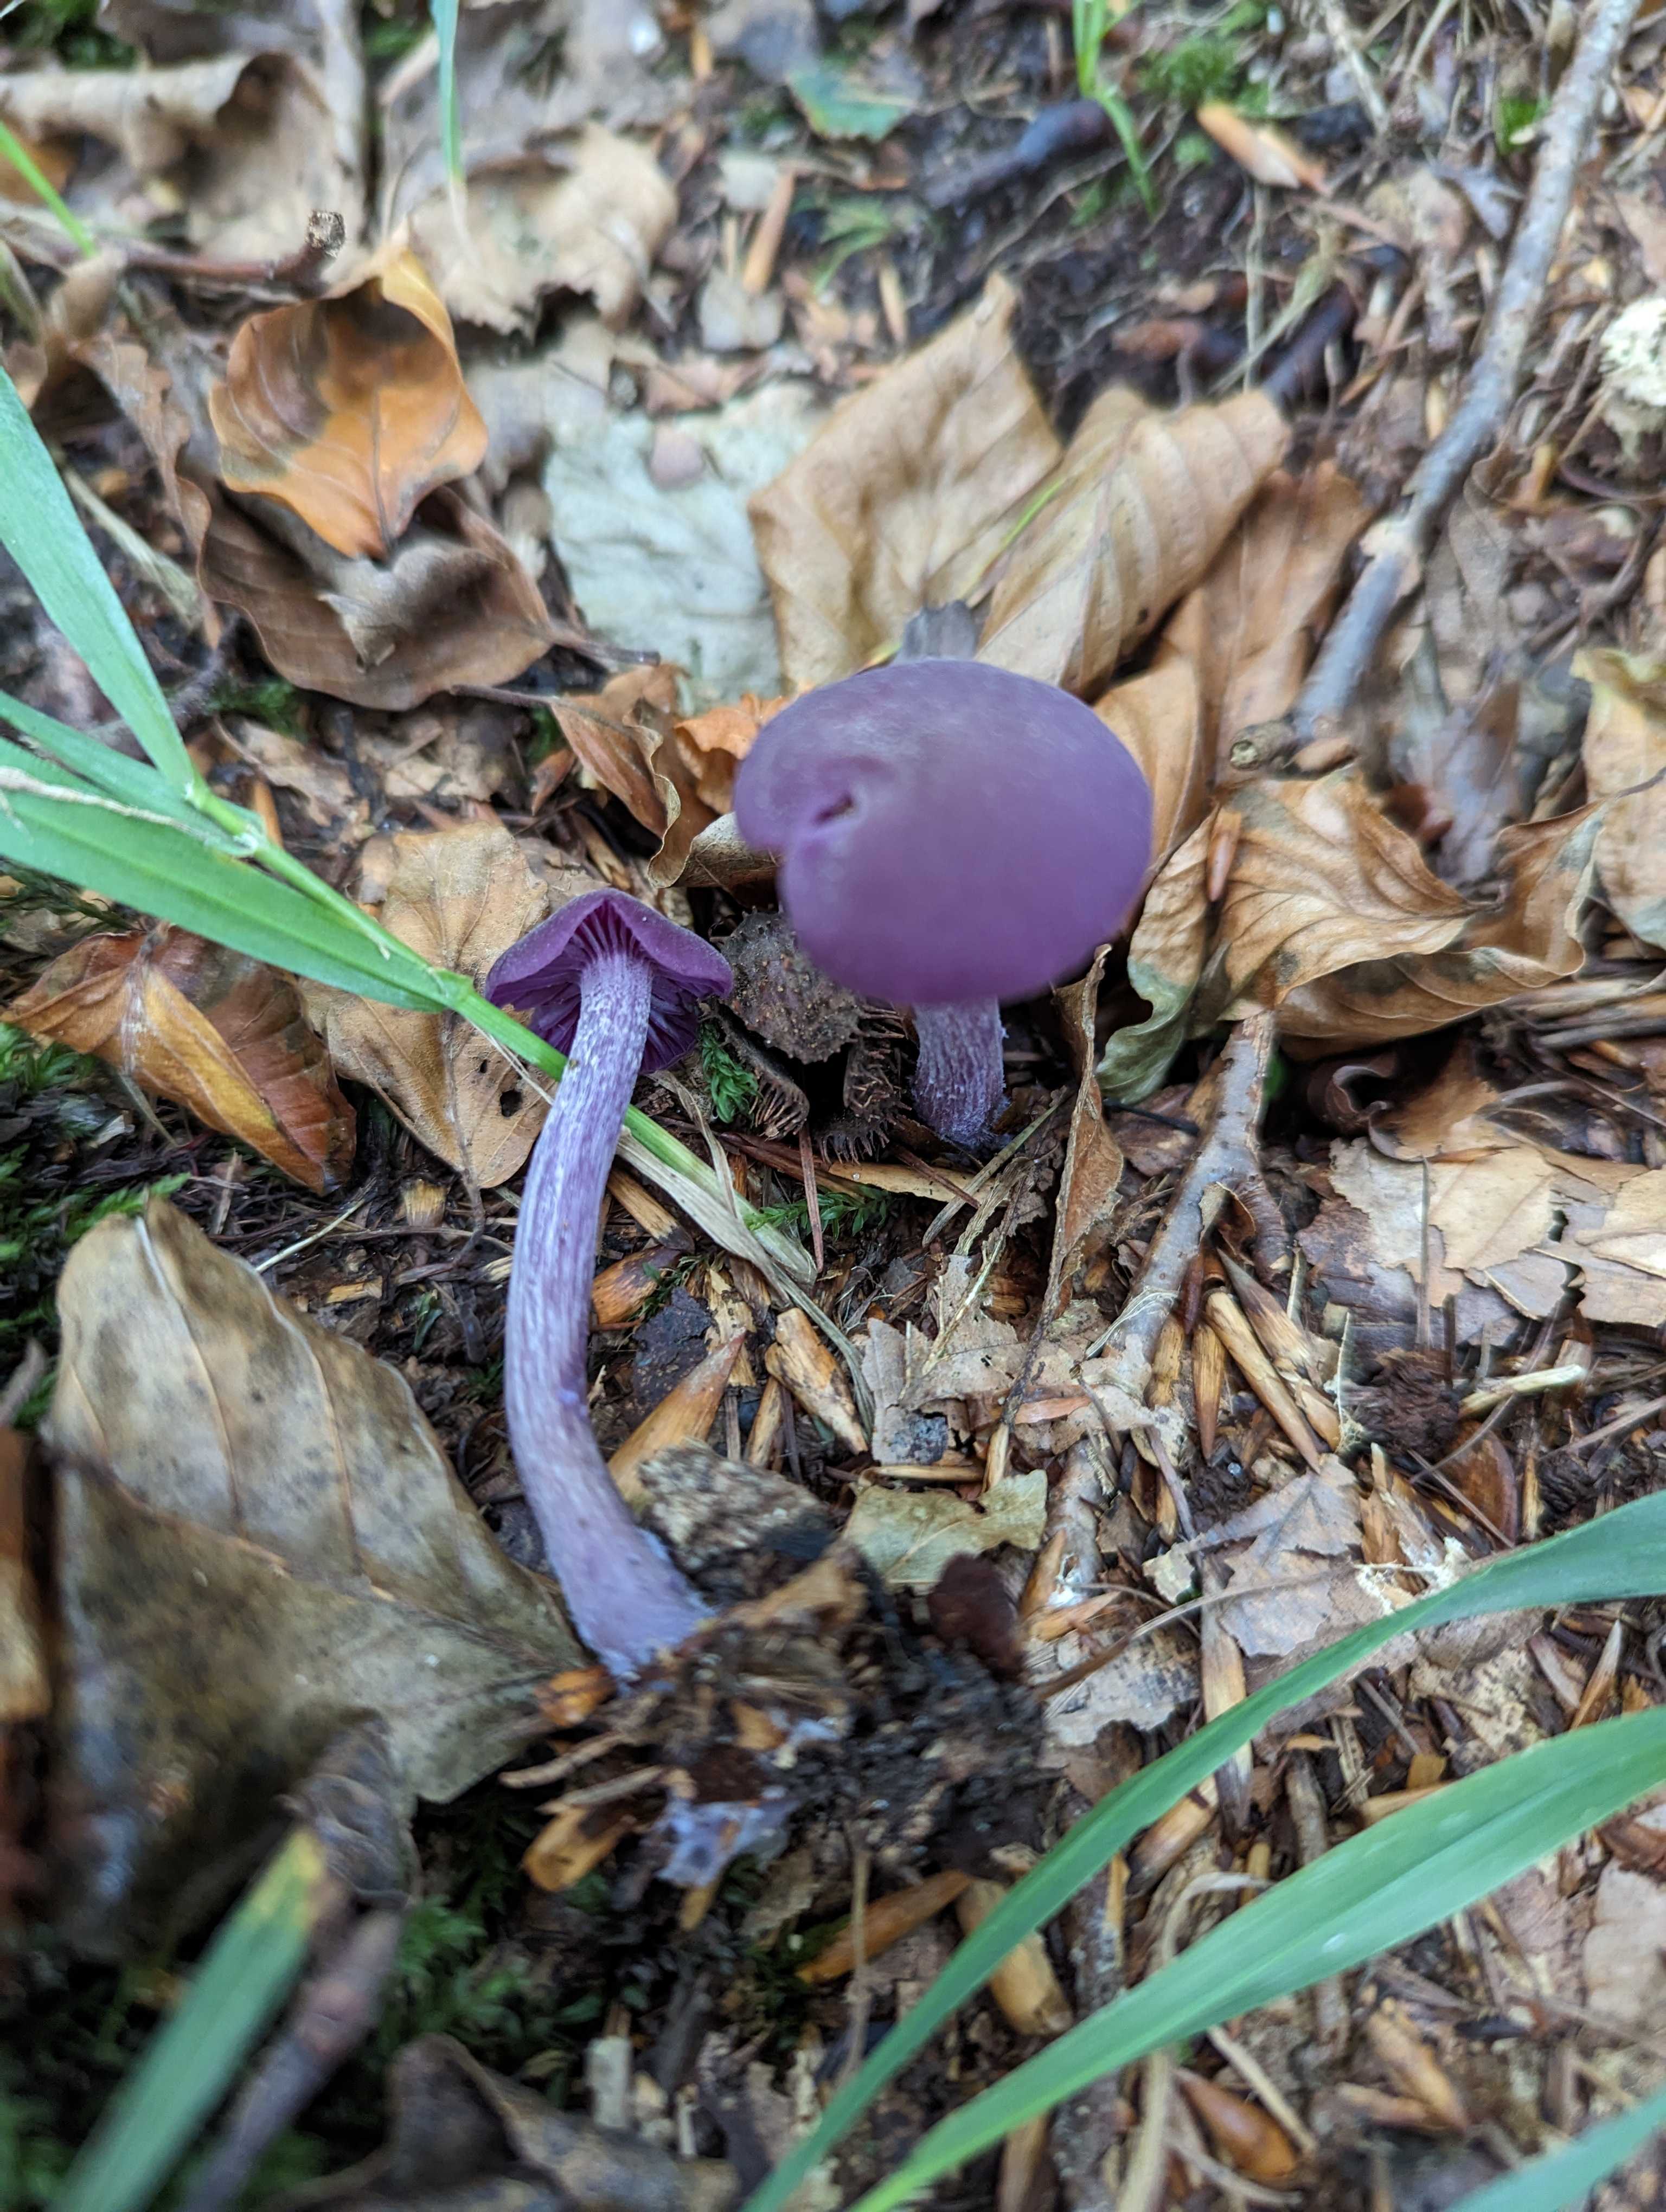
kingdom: Fungi
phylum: Basidiomycota
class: Agaricomycetes
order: Agaricales
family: Hydnangiaceae
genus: Laccaria
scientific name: Laccaria amethystina
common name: violet ametysthat
